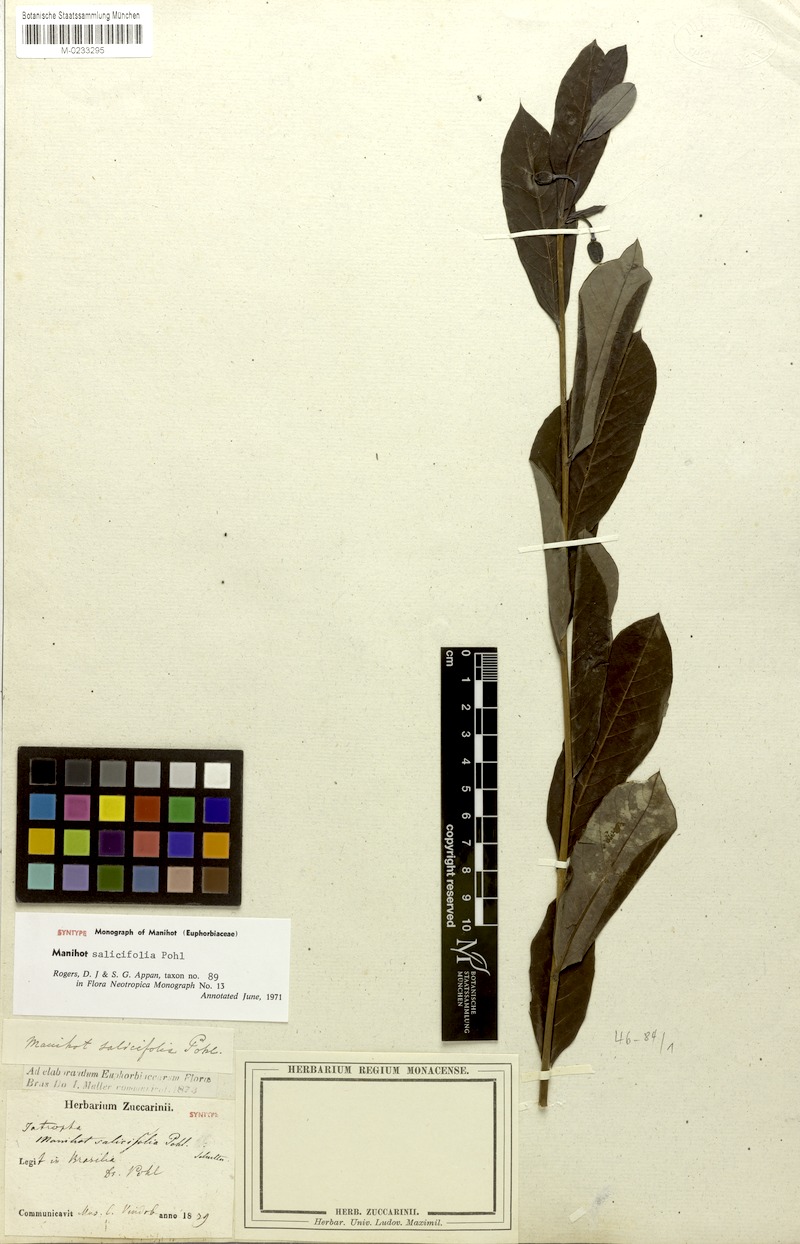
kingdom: Plantae
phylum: Tracheophyta
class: Magnoliopsida
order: Malpighiales
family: Euphorbiaceae
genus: Manihot
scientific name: Manihot salicifolia
